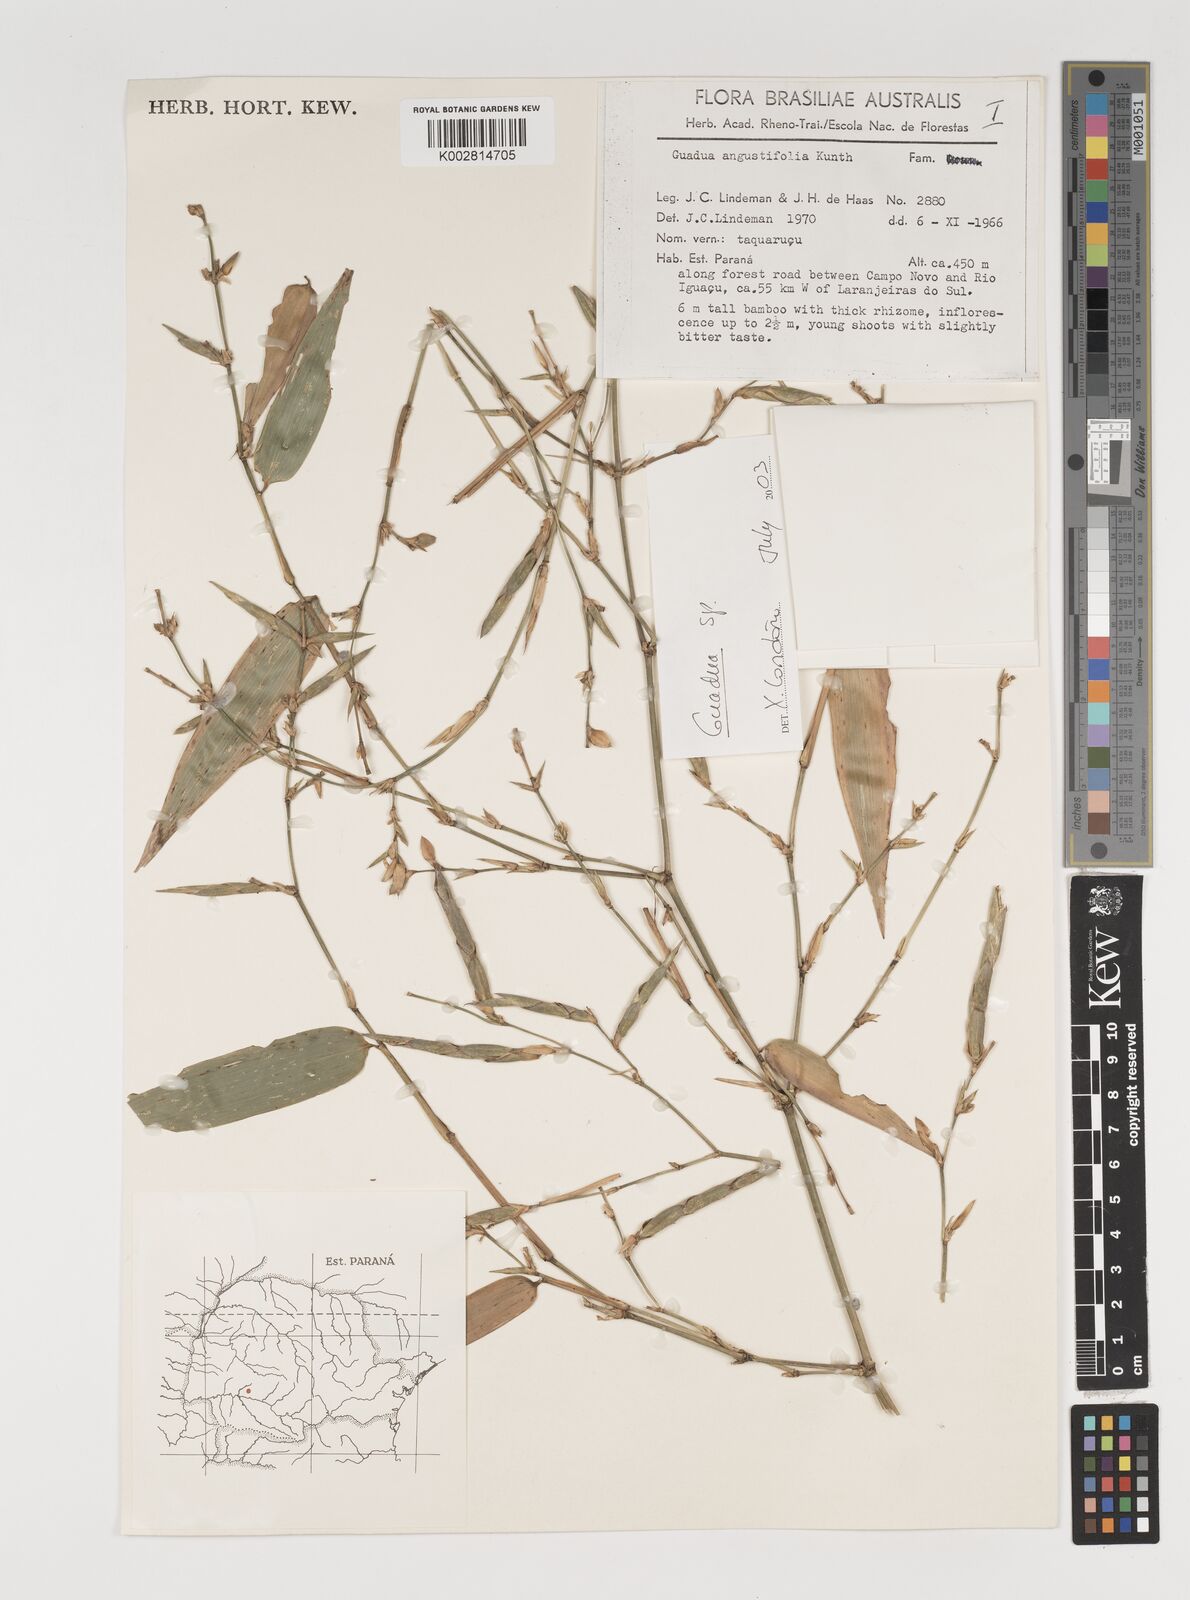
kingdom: Plantae
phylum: Tracheophyta
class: Liliopsida
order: Poales
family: Poaceae
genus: Guadua
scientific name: Guadua
